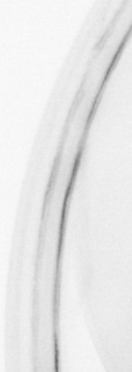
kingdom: Animalia
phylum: Chordata
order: Copelata
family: Fritillariidae
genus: Appendicularia
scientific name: Appendicularia
